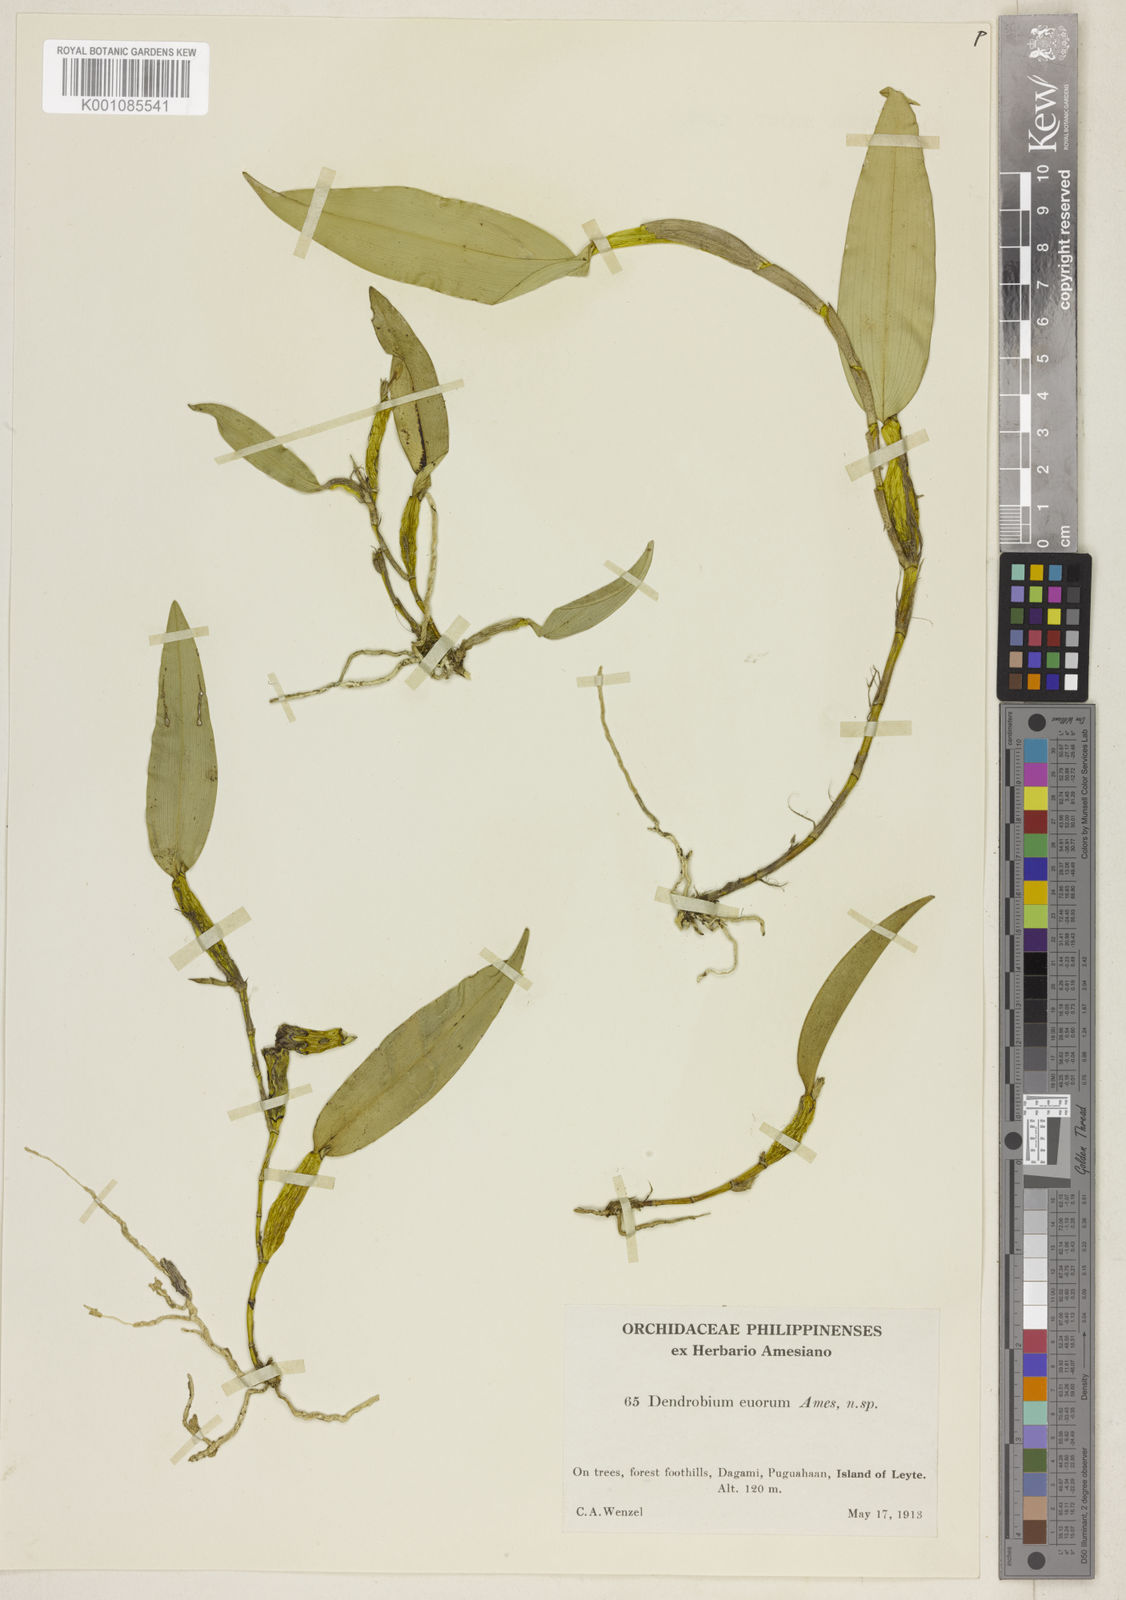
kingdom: Plantae
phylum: Tracheophyta
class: Liliopsida
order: Asparagales
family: Orchidaceae
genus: Dendrobium
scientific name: Dendrobium eurorum
